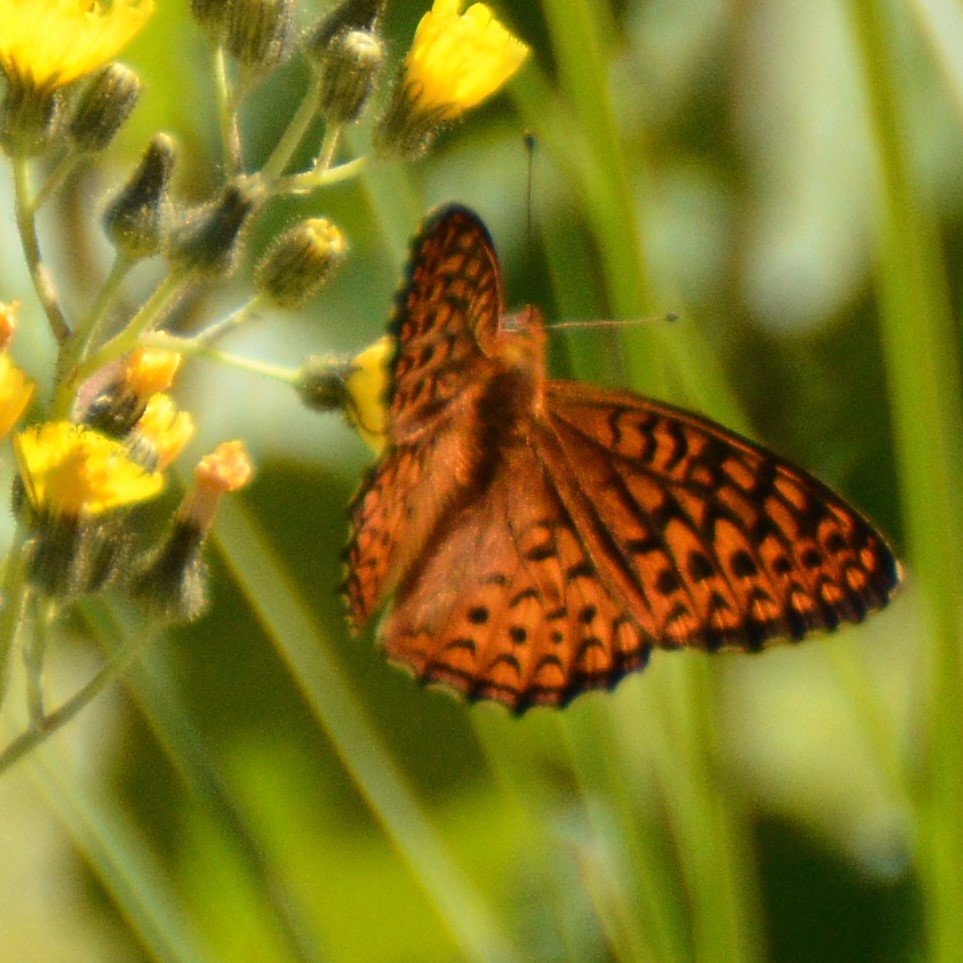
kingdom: Animalia
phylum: Arthropoda
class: Insecta
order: Lepidoptera
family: Nymphalidae
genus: Speyeria
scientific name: Speyeria atlantis
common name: Atlantis Fritillary
